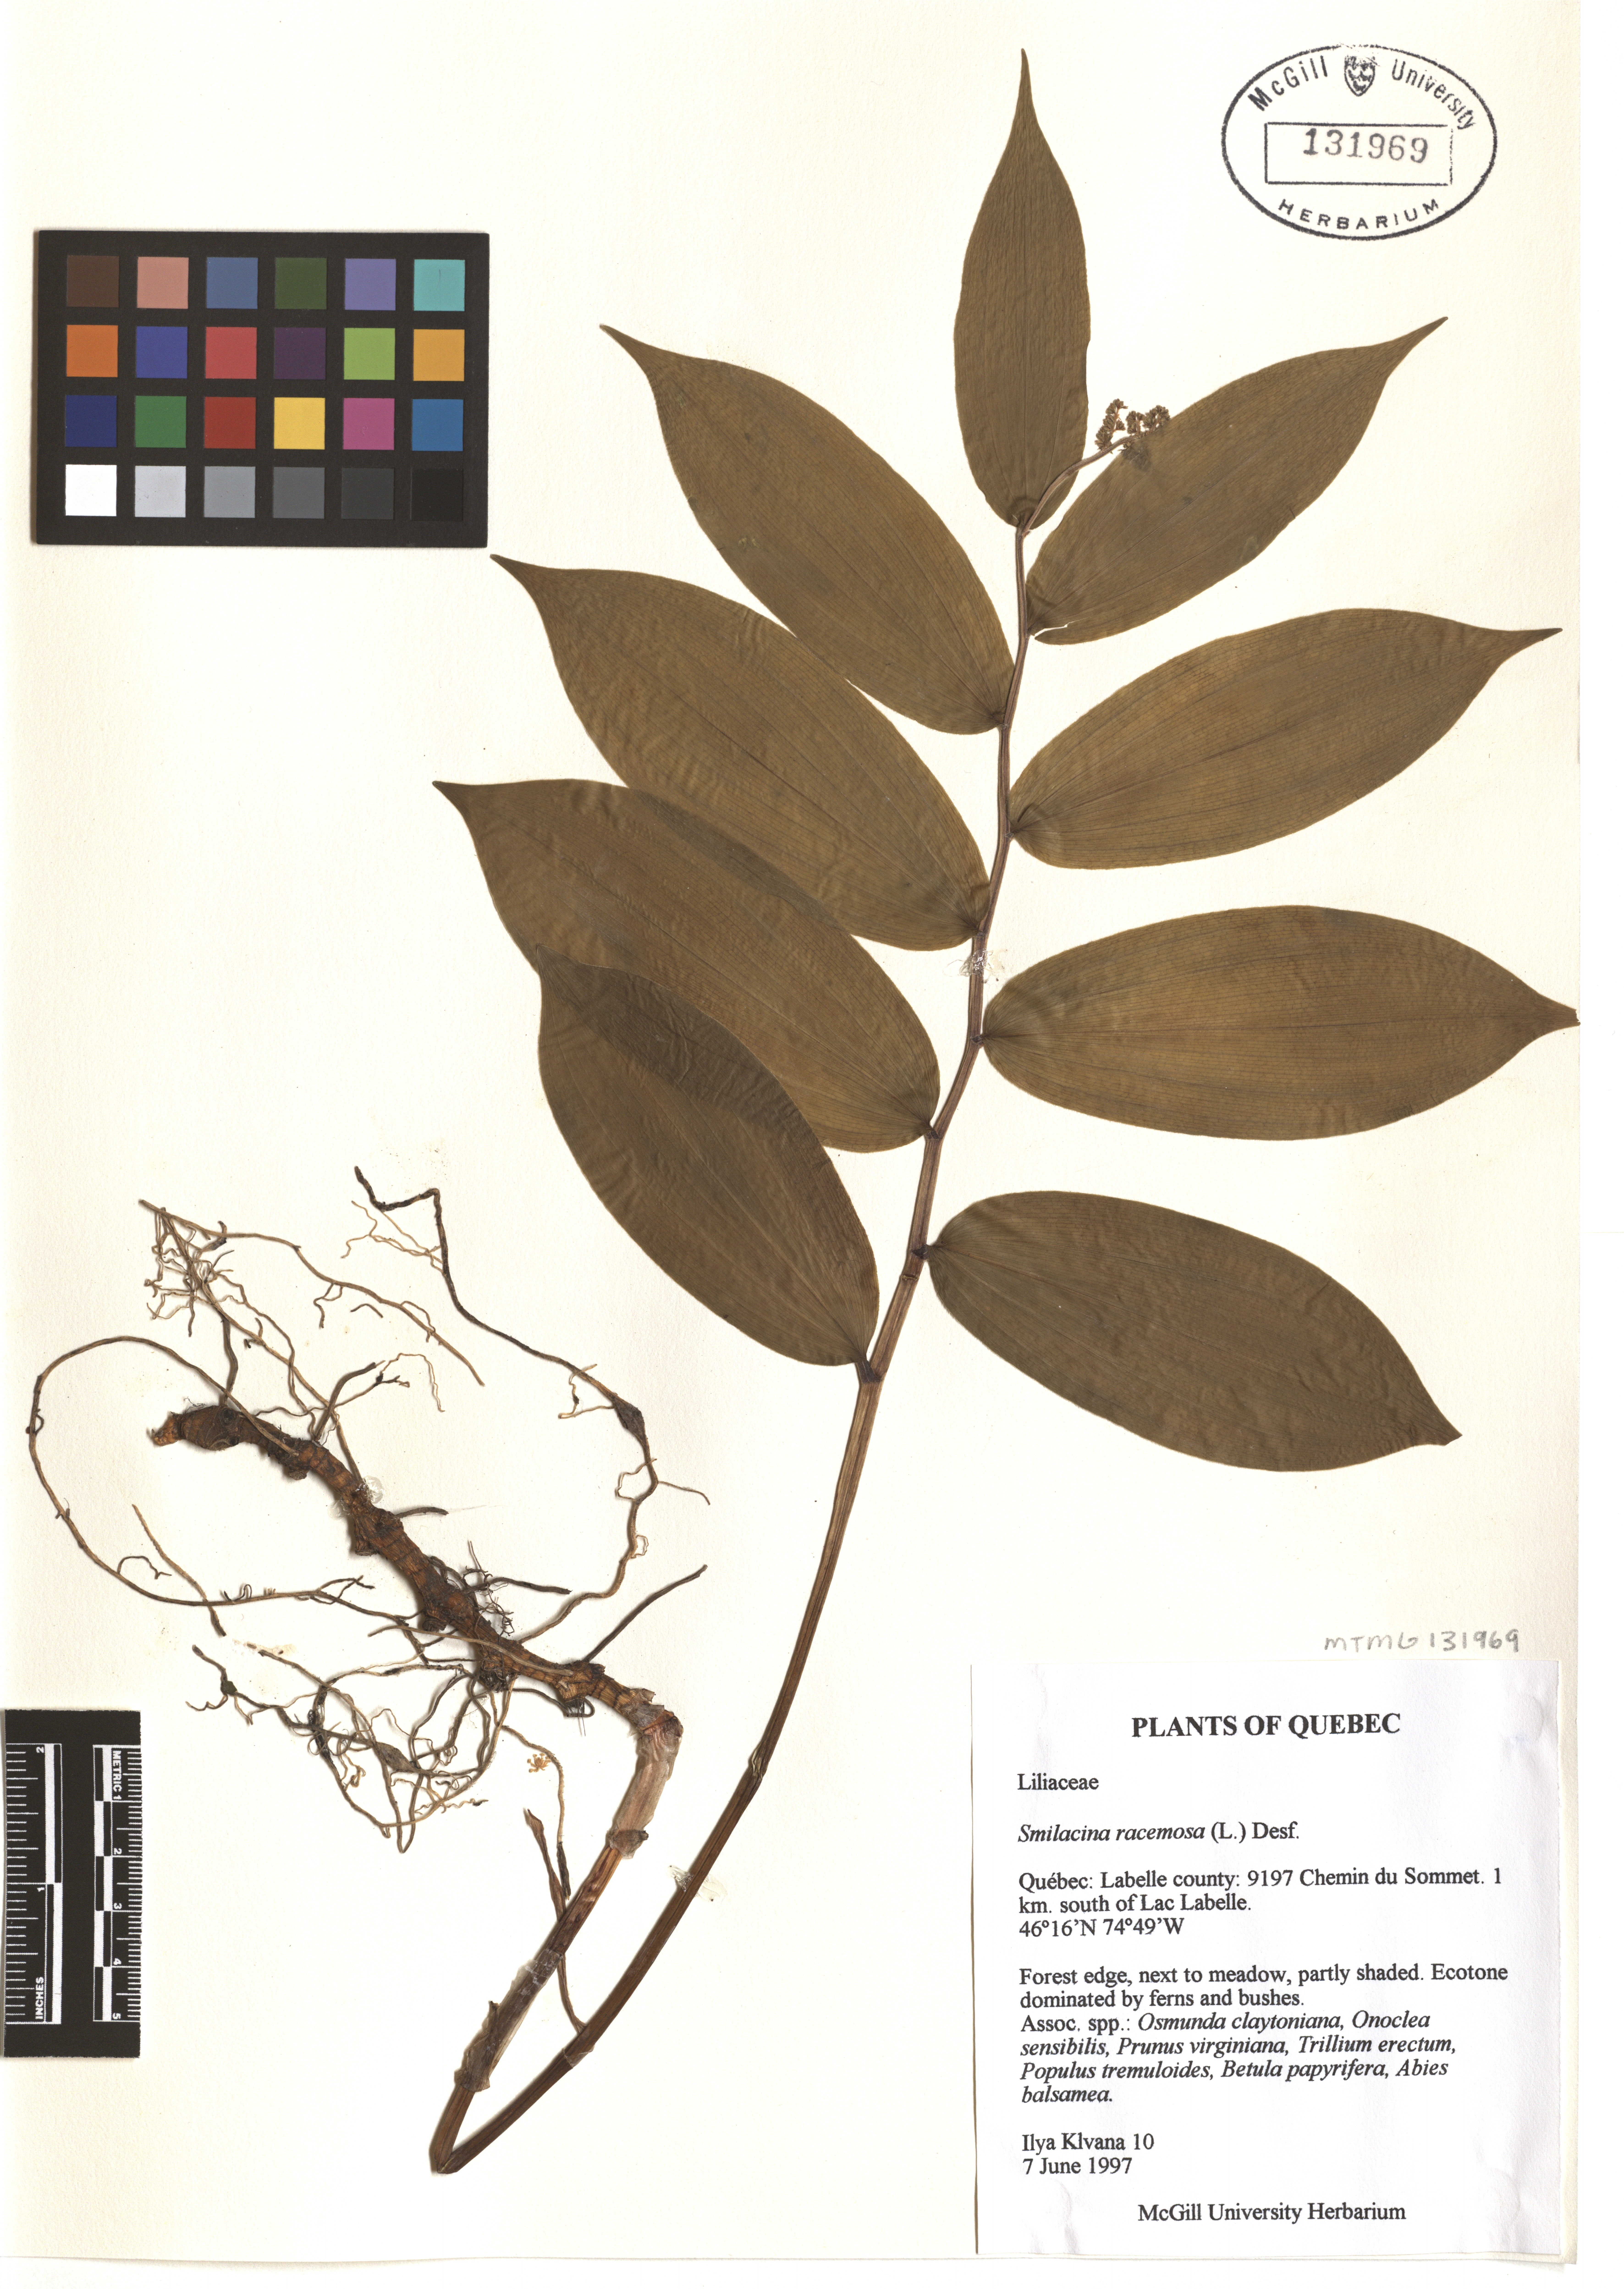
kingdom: Plantae
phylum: Tracheophyta
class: Liliopsida
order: Asparagales
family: Asparagaceae
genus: Maianthemum
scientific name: Maianthemum racemosum
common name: False spikenard
